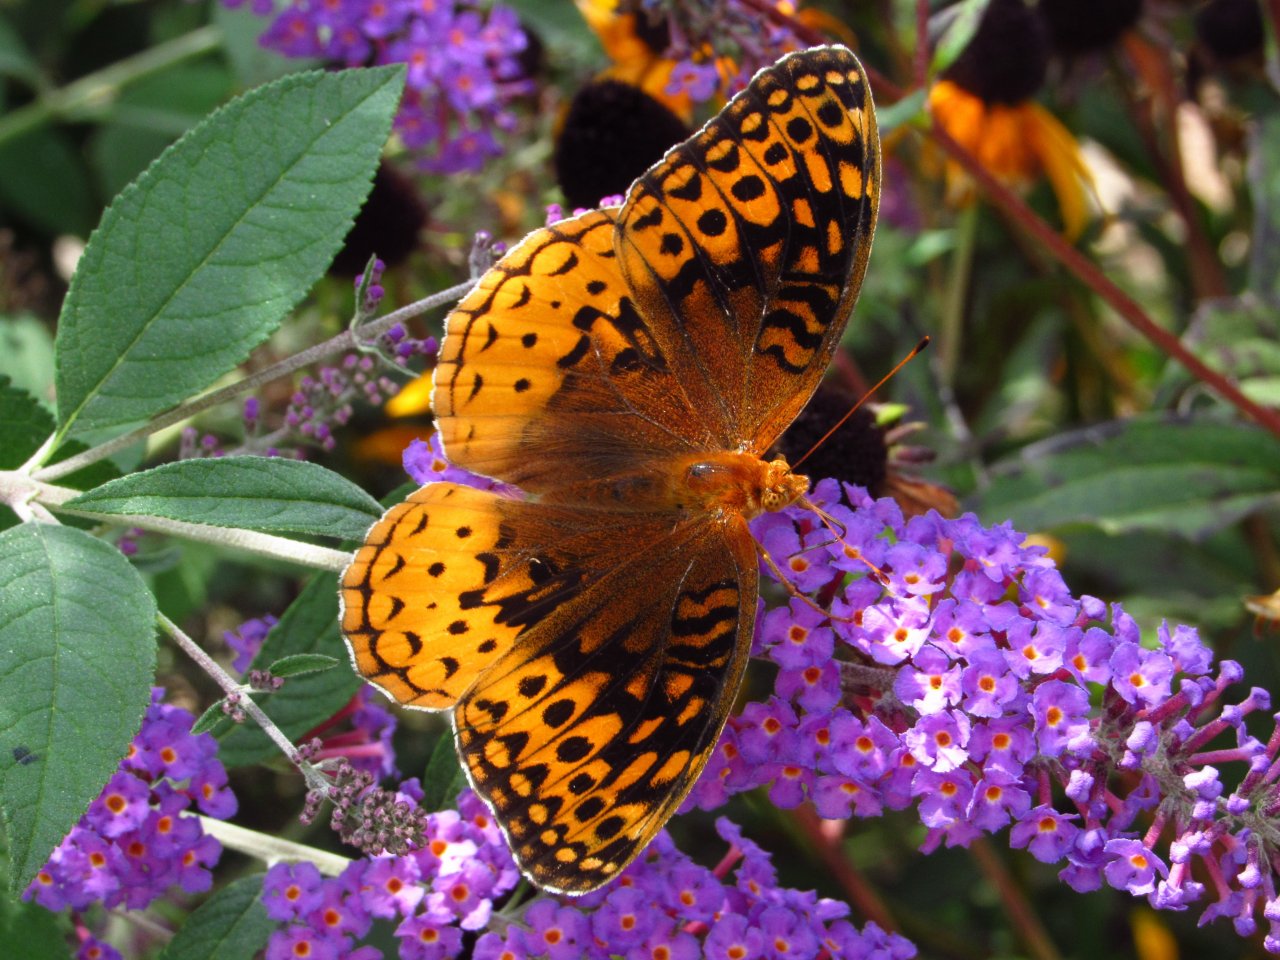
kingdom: Animalia
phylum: Arthropoda
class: Insecta
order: Lepidoptera
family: Nymphalidae
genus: Speyeria
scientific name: Speyeria cybele
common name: Great Spangled Fritillary
